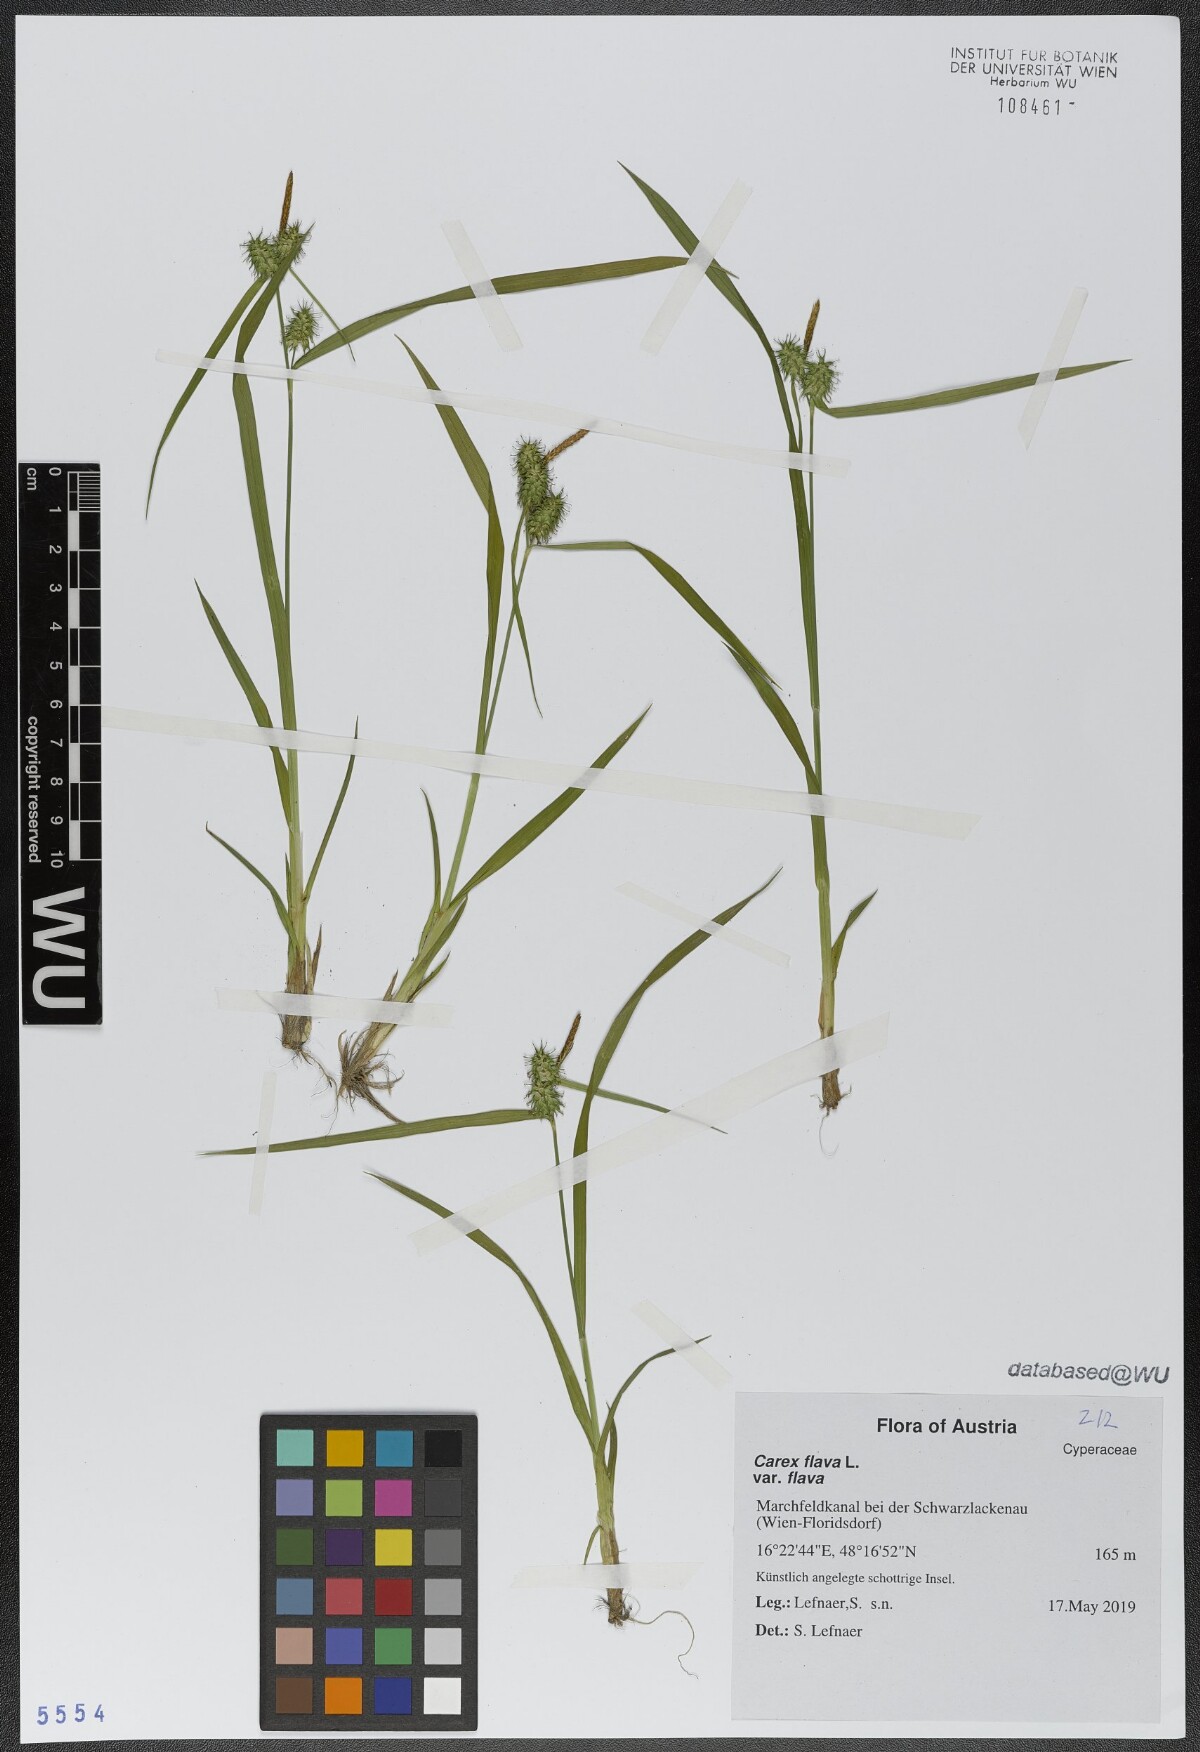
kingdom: Plantae
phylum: Tracheophyta
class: Liliopsida
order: Poales
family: Cyperaceae
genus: Carex
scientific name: Carex flava
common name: Large yellow-sedge
